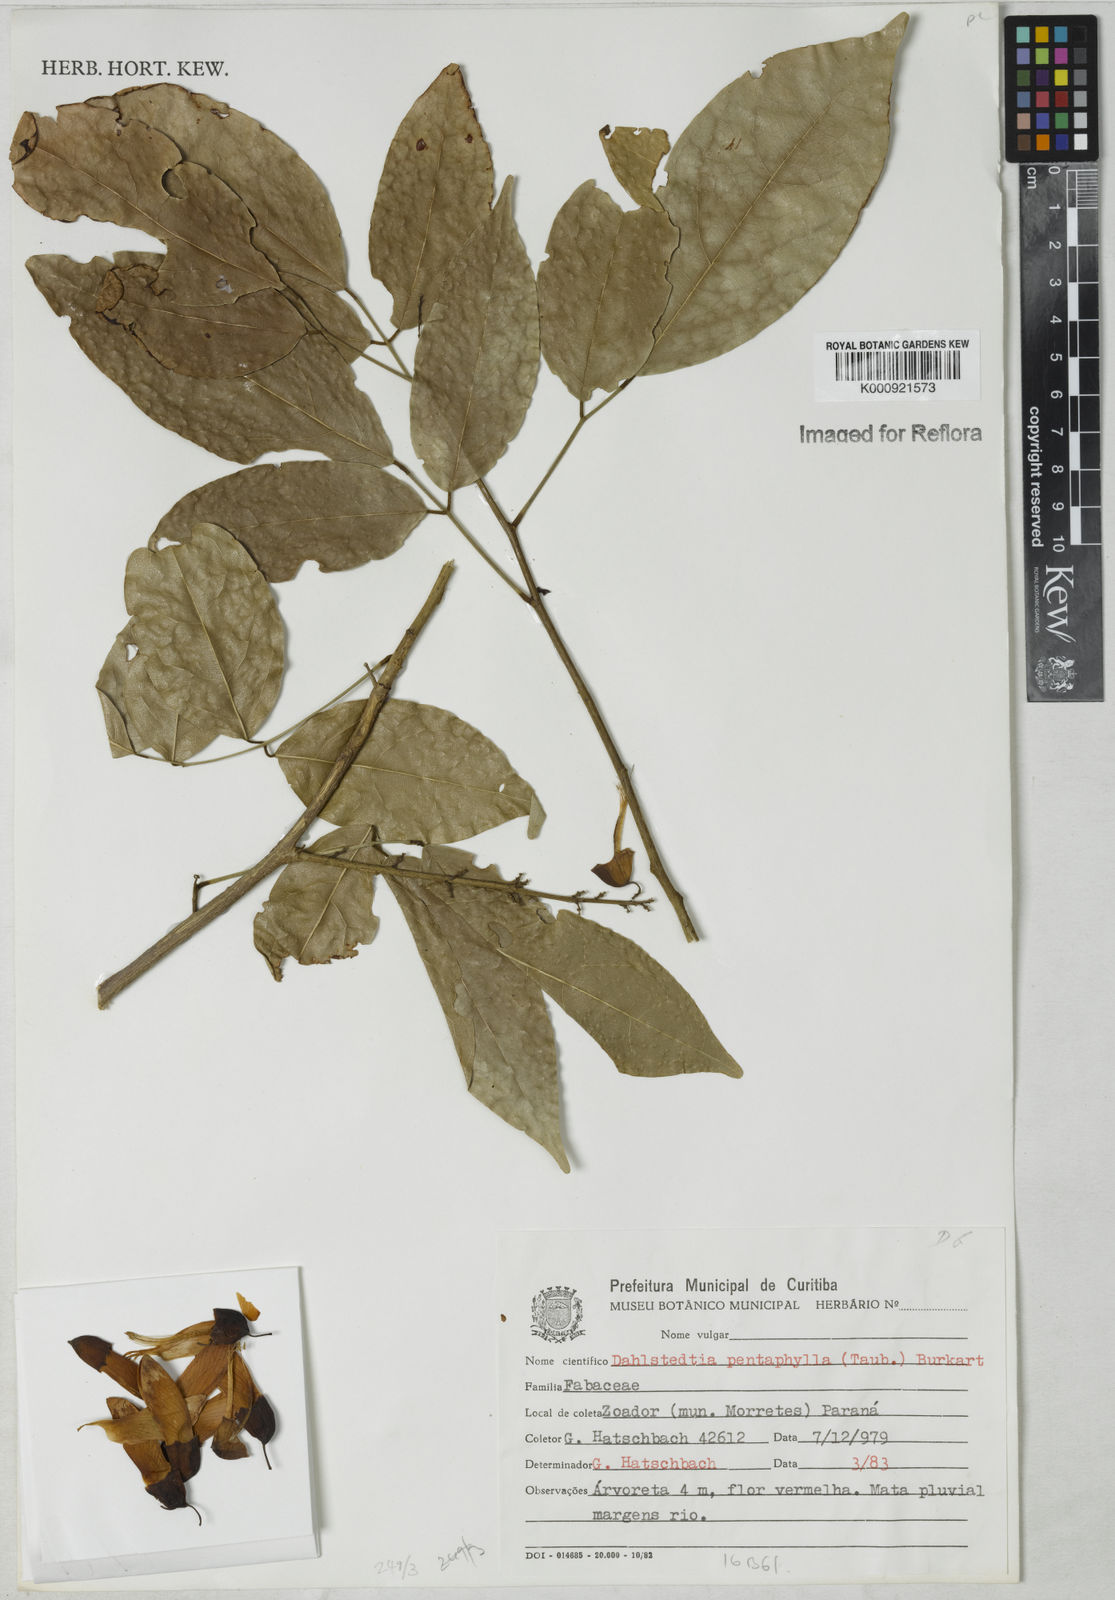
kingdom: Plantae
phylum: Tracheophyta
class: Magnoliopsida
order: Fabales
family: Fabaceae
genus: Dahlstedtia
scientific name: Dahlstedtia pentaphylla
